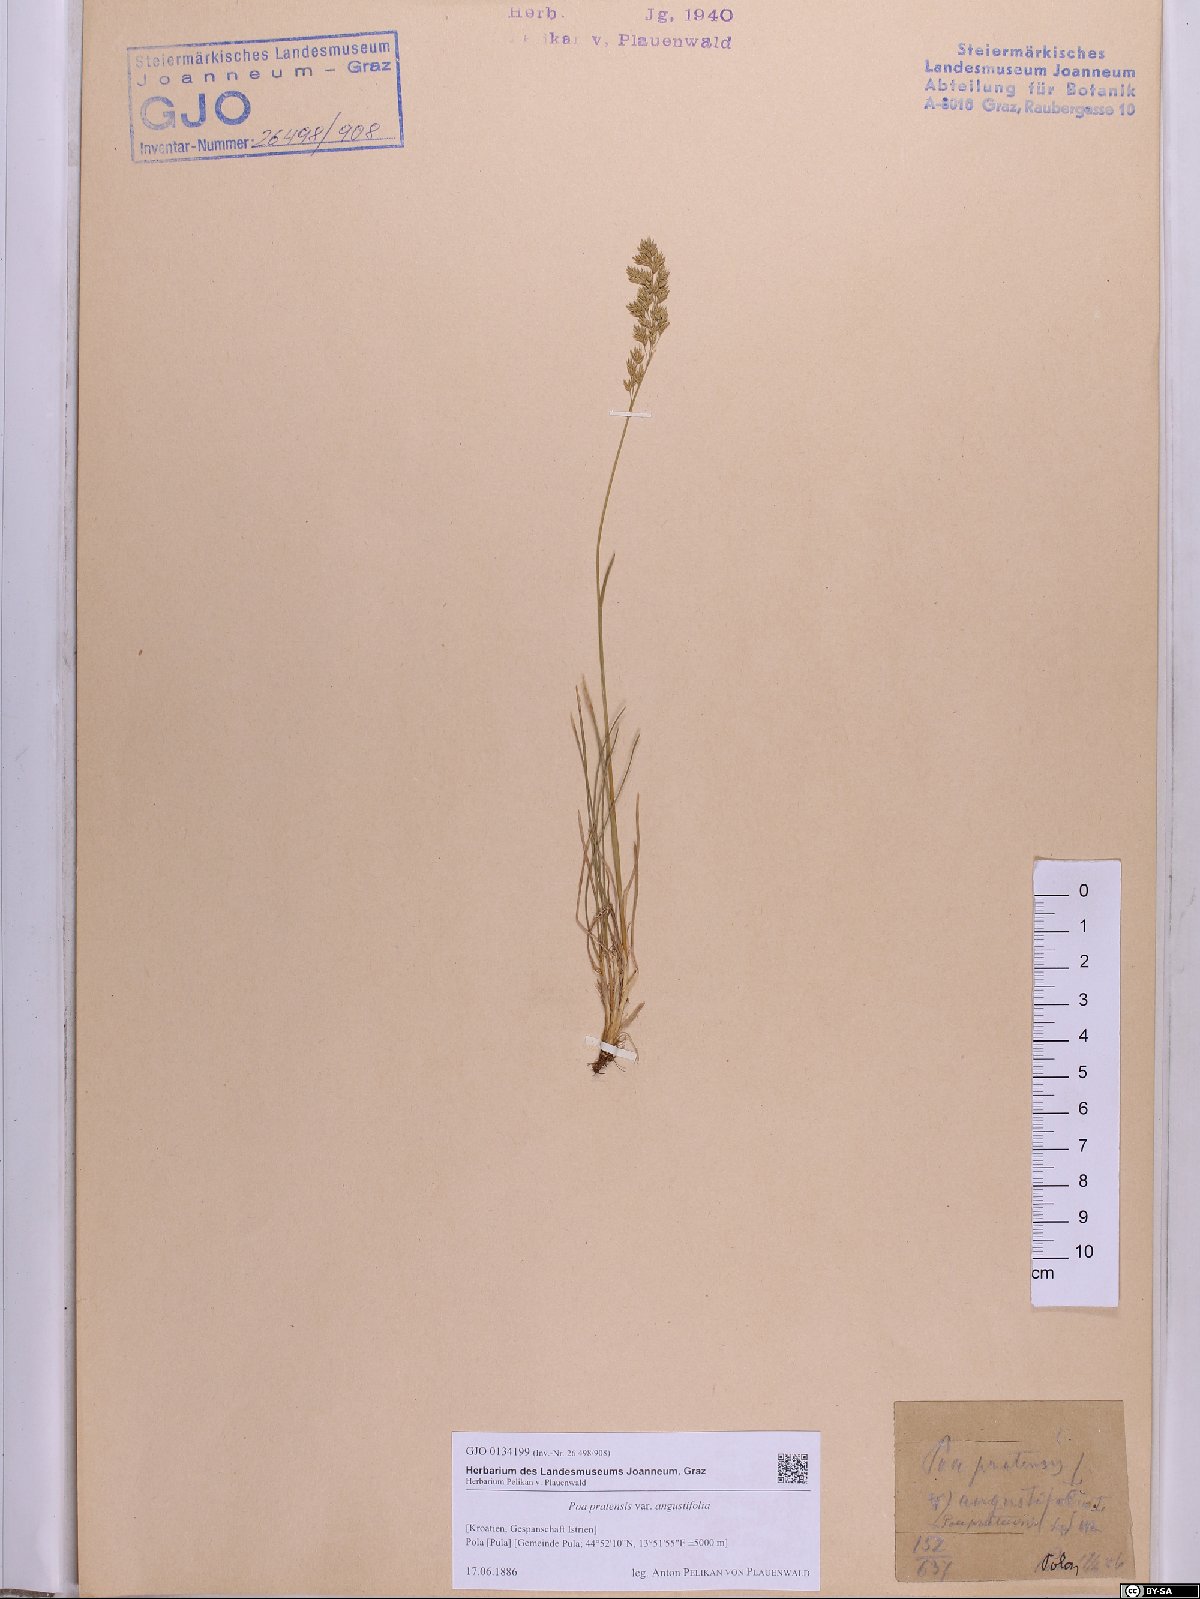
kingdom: Plantae
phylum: Tracheophyta
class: Liliopsida
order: Poales
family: Poaceae
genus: Poa
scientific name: Poa angustifolia
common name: Narrow-leaved meadow-grass
